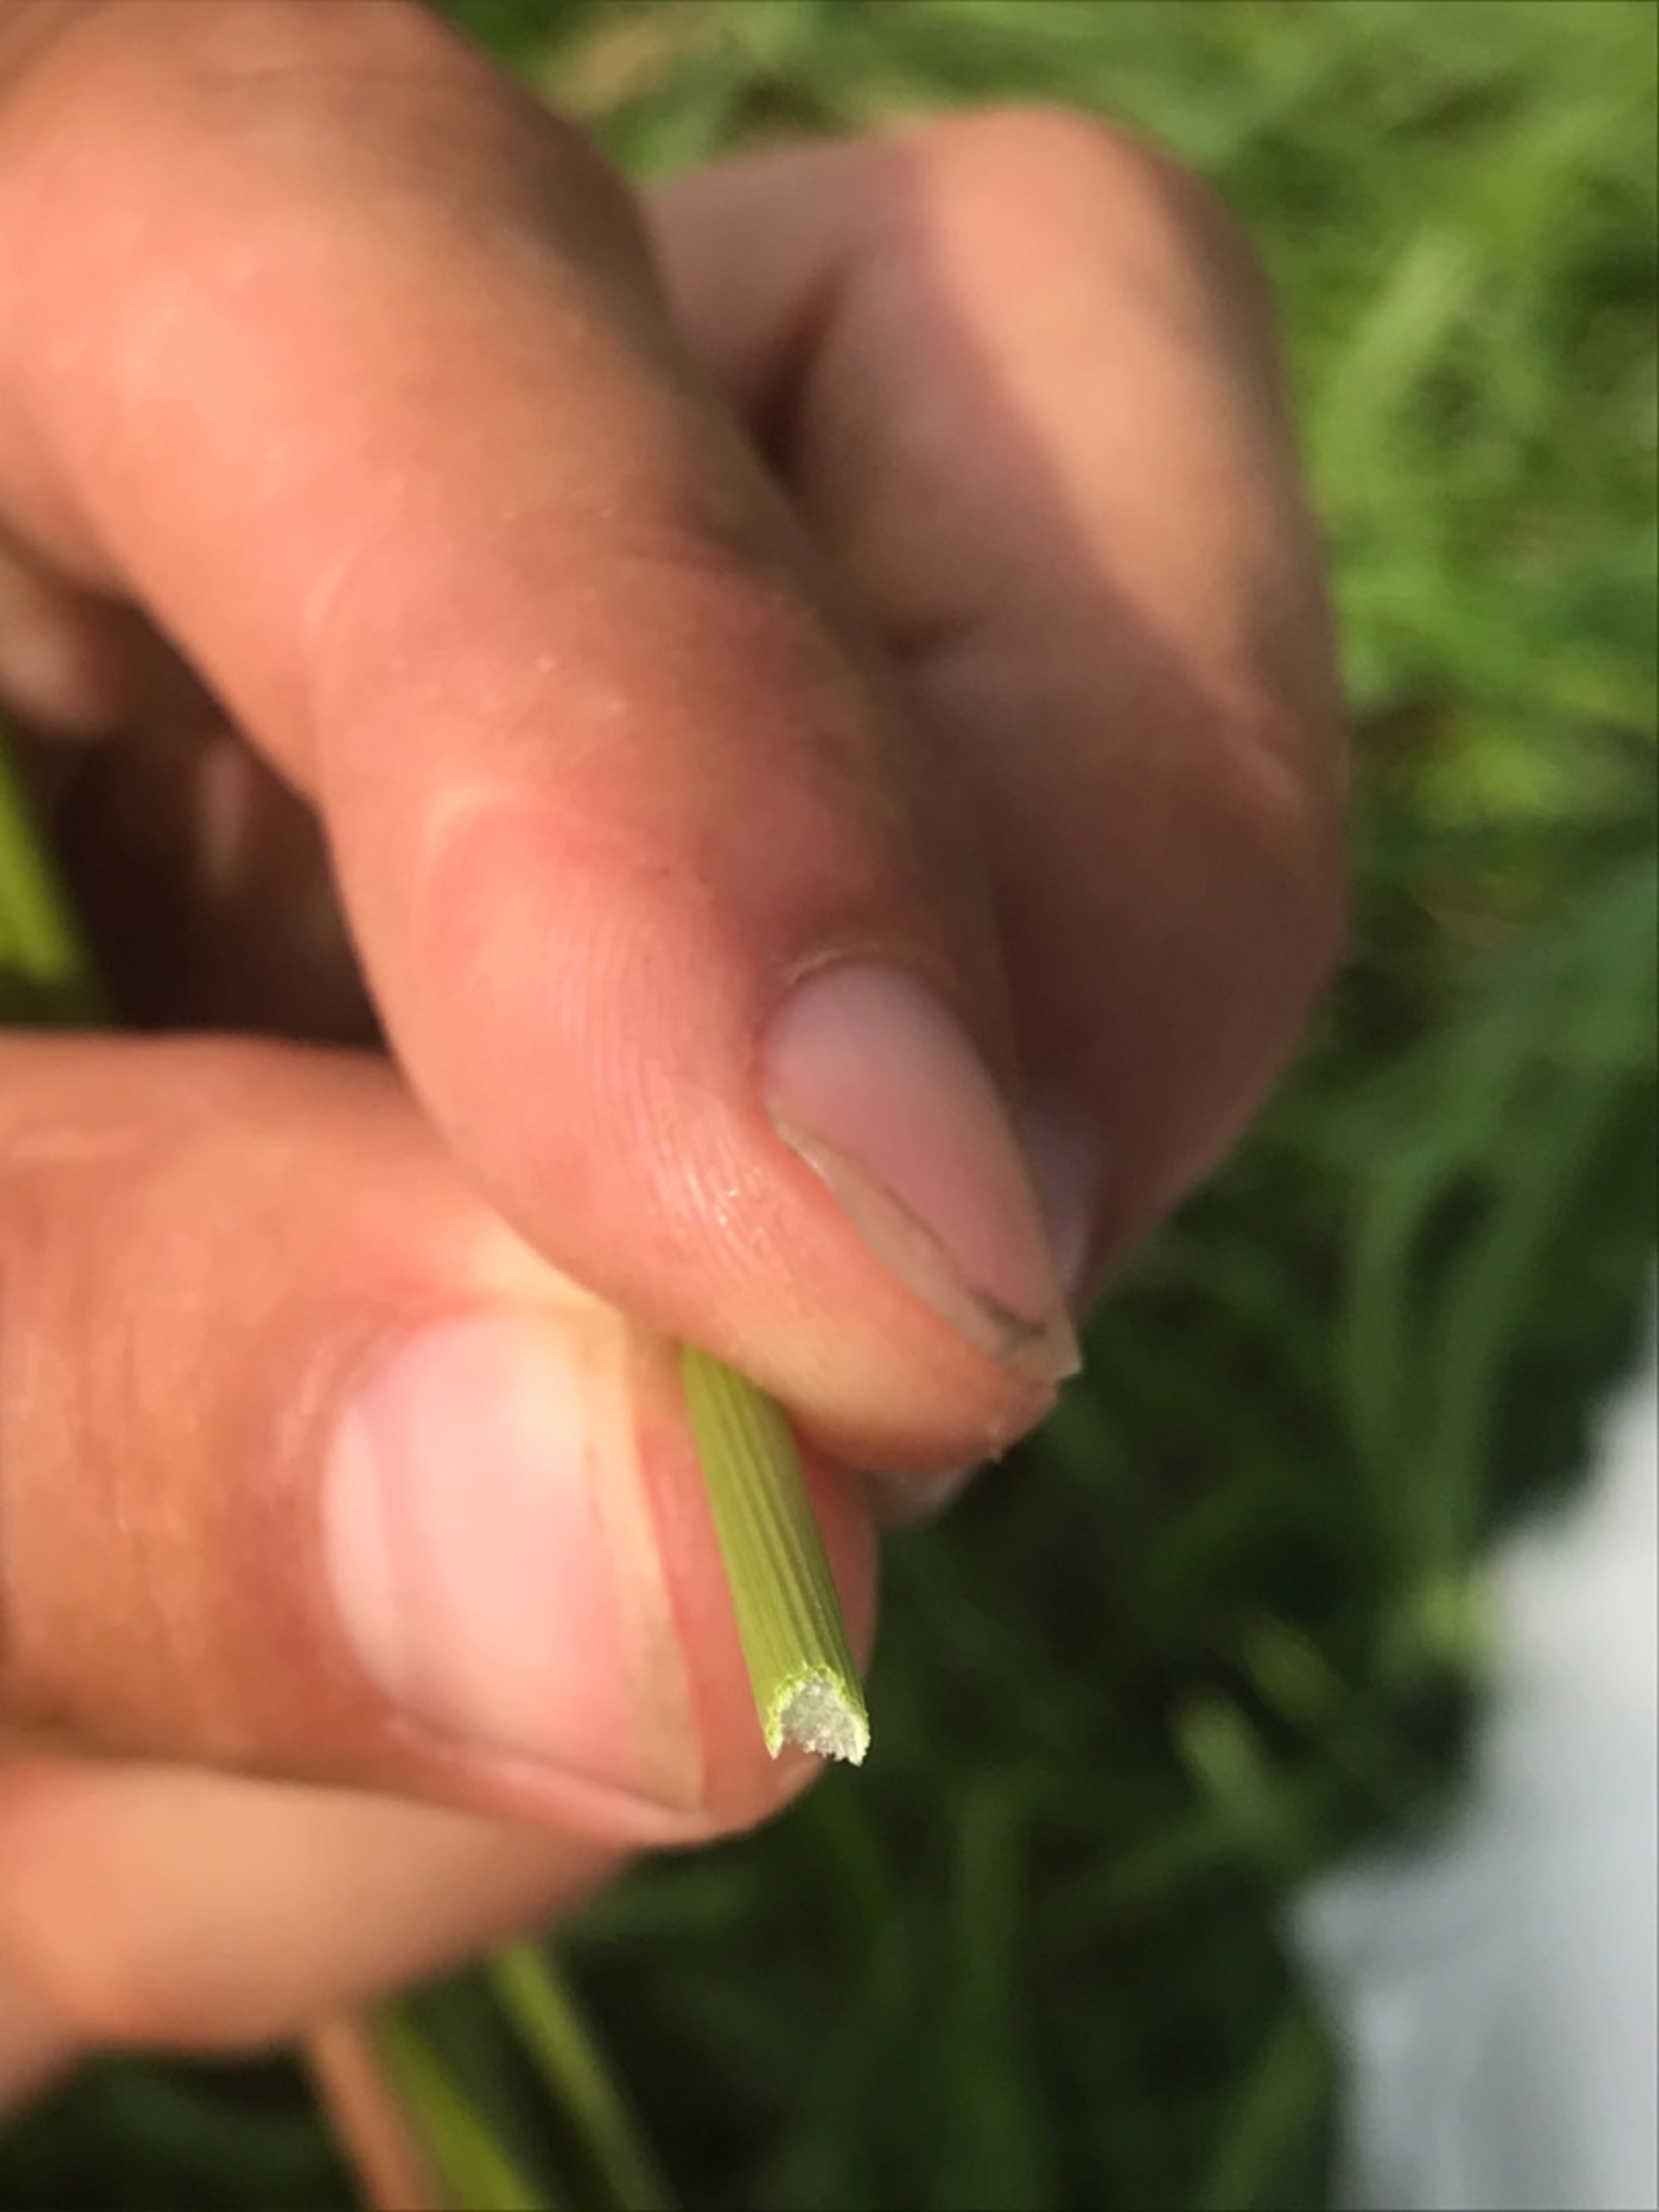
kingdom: Plantae
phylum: Tracheophyta
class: Liliopsida
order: Poales
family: Juncaceae
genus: Juncus
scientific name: Juncus conglomeratus
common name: Knop-siv
